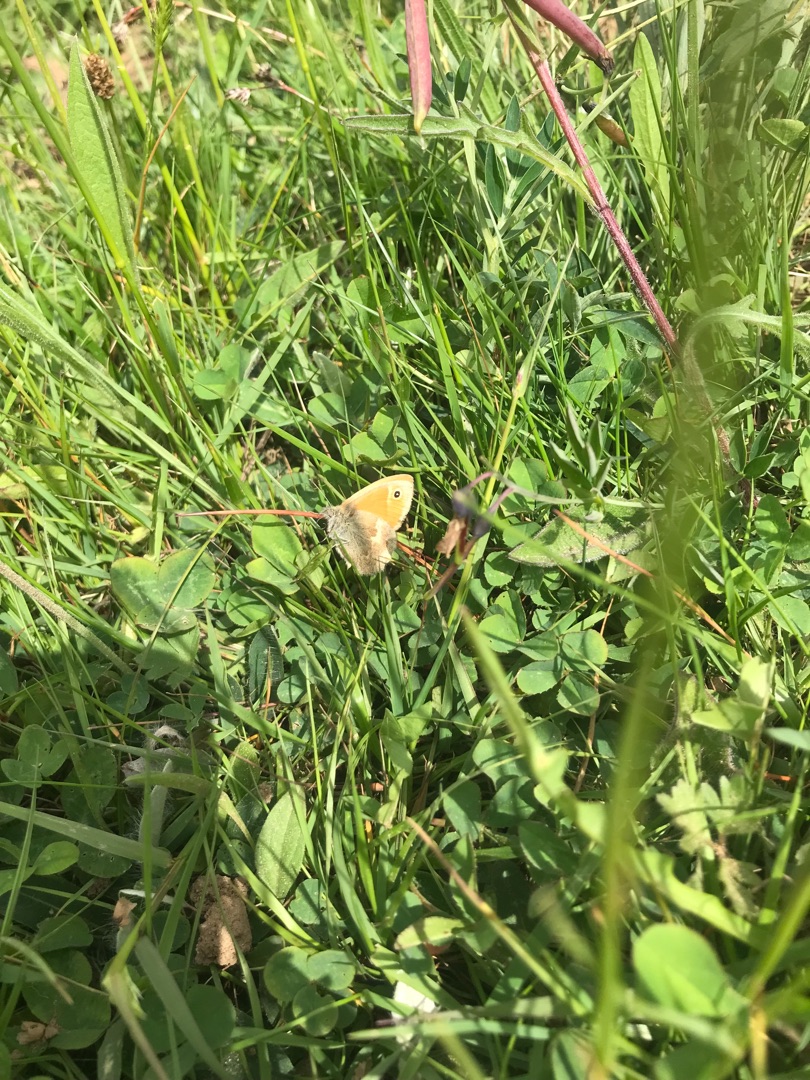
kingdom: Animalia
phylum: Arthropoda
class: Insecta
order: Lepidoptera
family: Nymphalidae
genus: Coenonympha
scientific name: Coenonympha pamphilus
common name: Okkergul randøje
